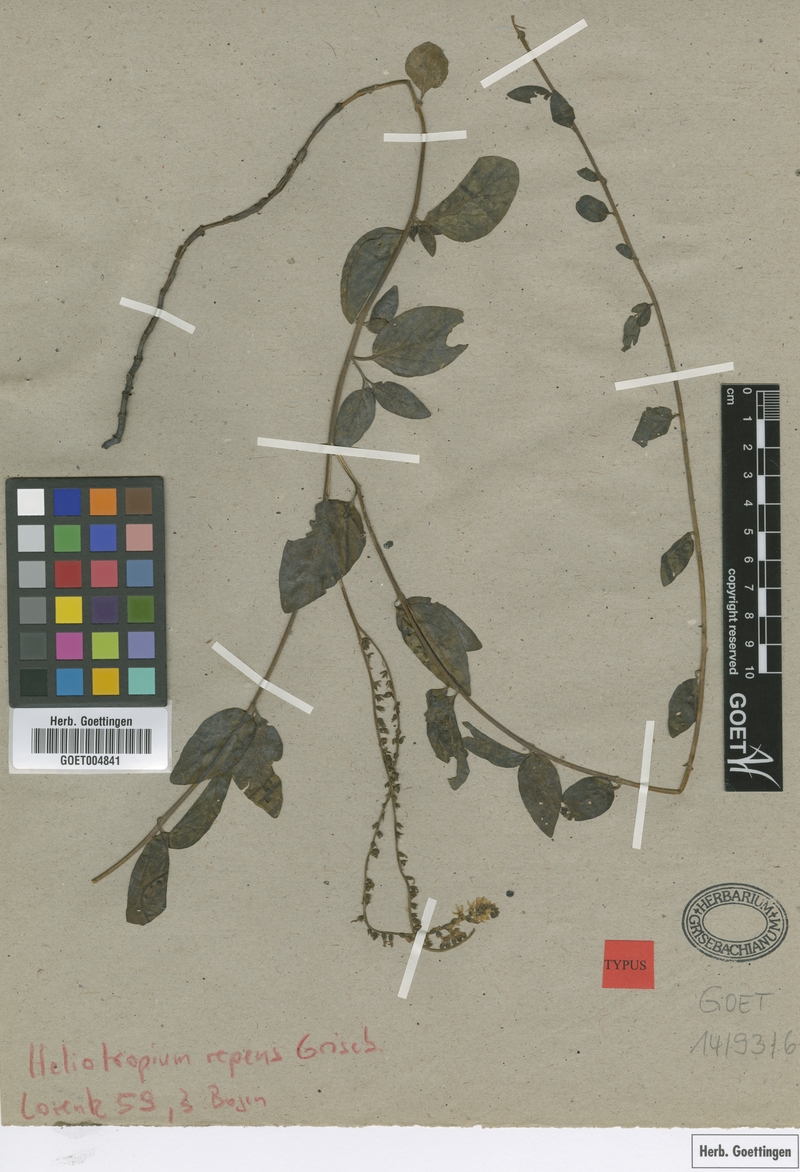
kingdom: Plantae
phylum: Tracheophyta
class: Magnoliopsida
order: Boraginales
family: Heliotropiaceae
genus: Heliotropium
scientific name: Heliotropium veronicifolium
